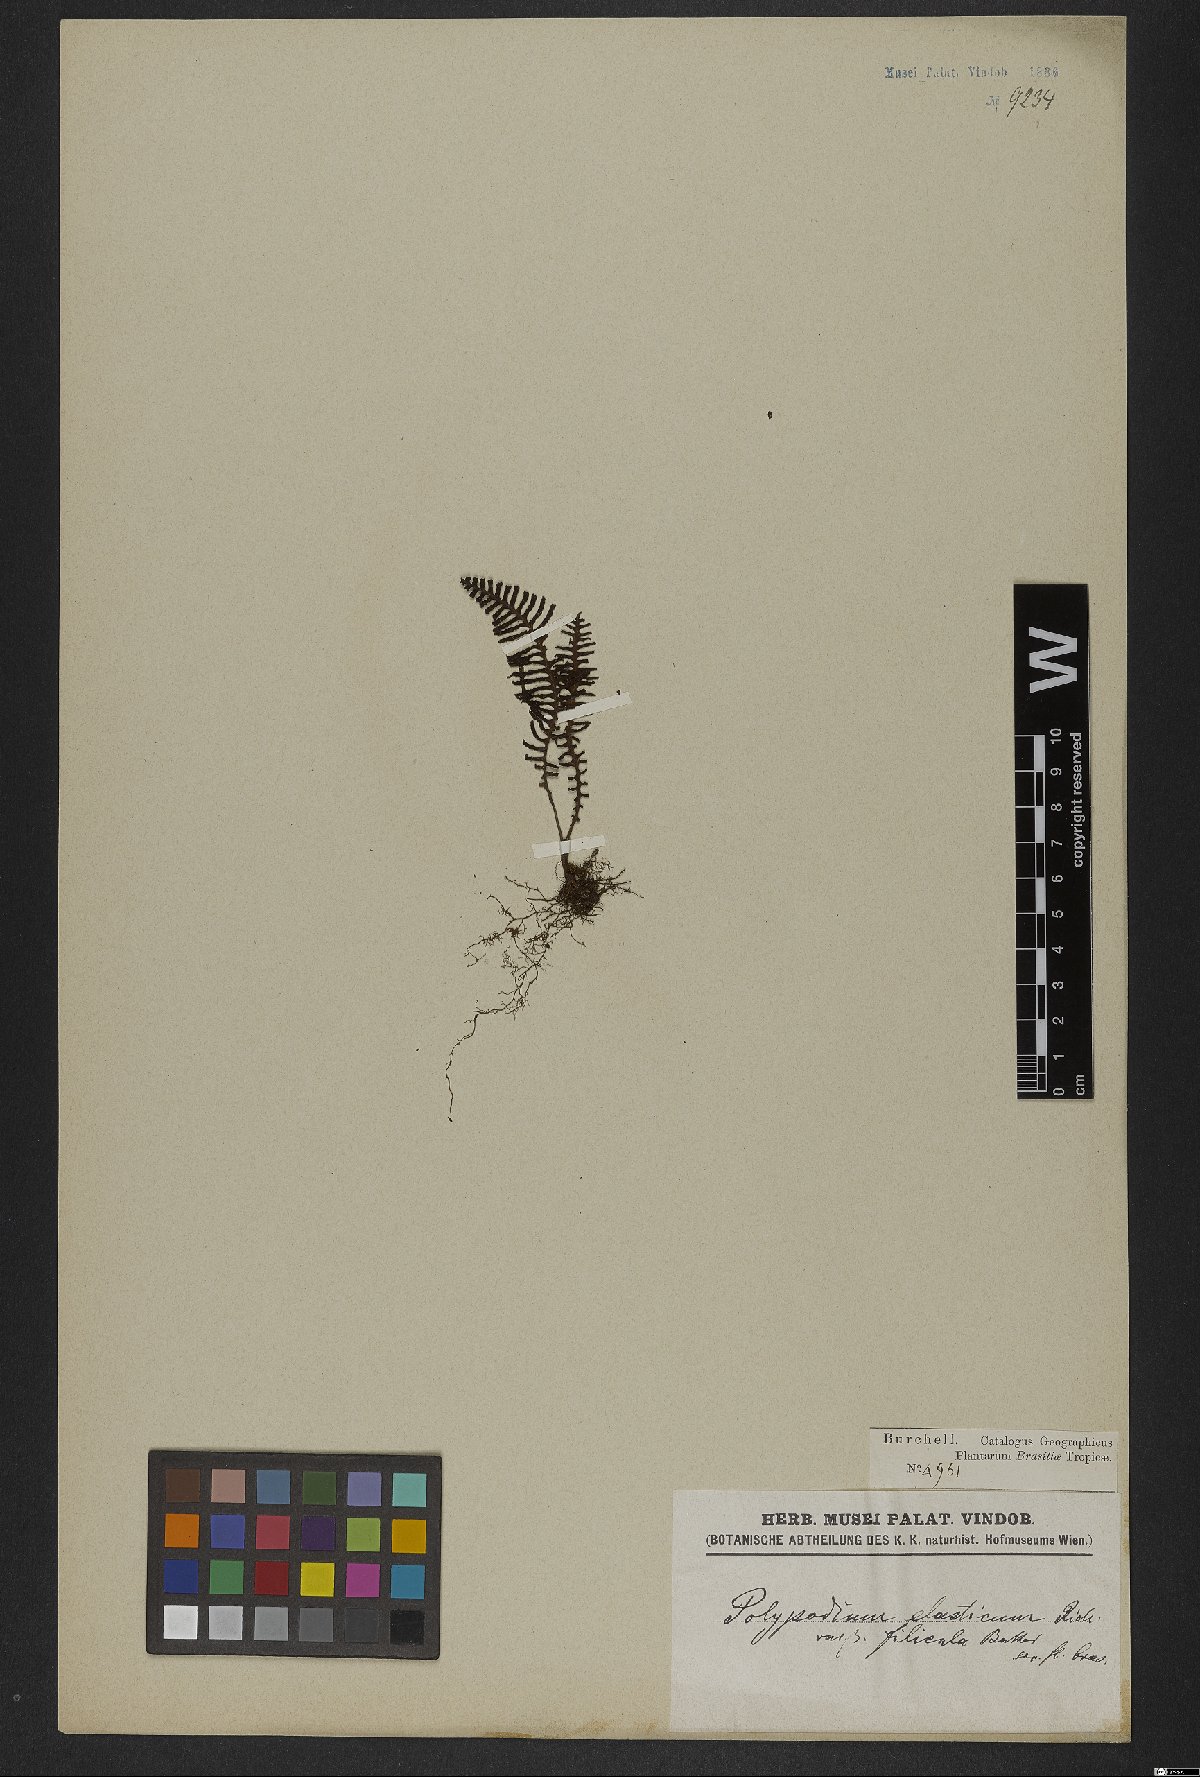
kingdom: Plantae
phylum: Tracheophyta
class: Polypodiopsida
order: Polypodiales
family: Polypodiaceae
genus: Pecluma
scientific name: Pecluma plumula
